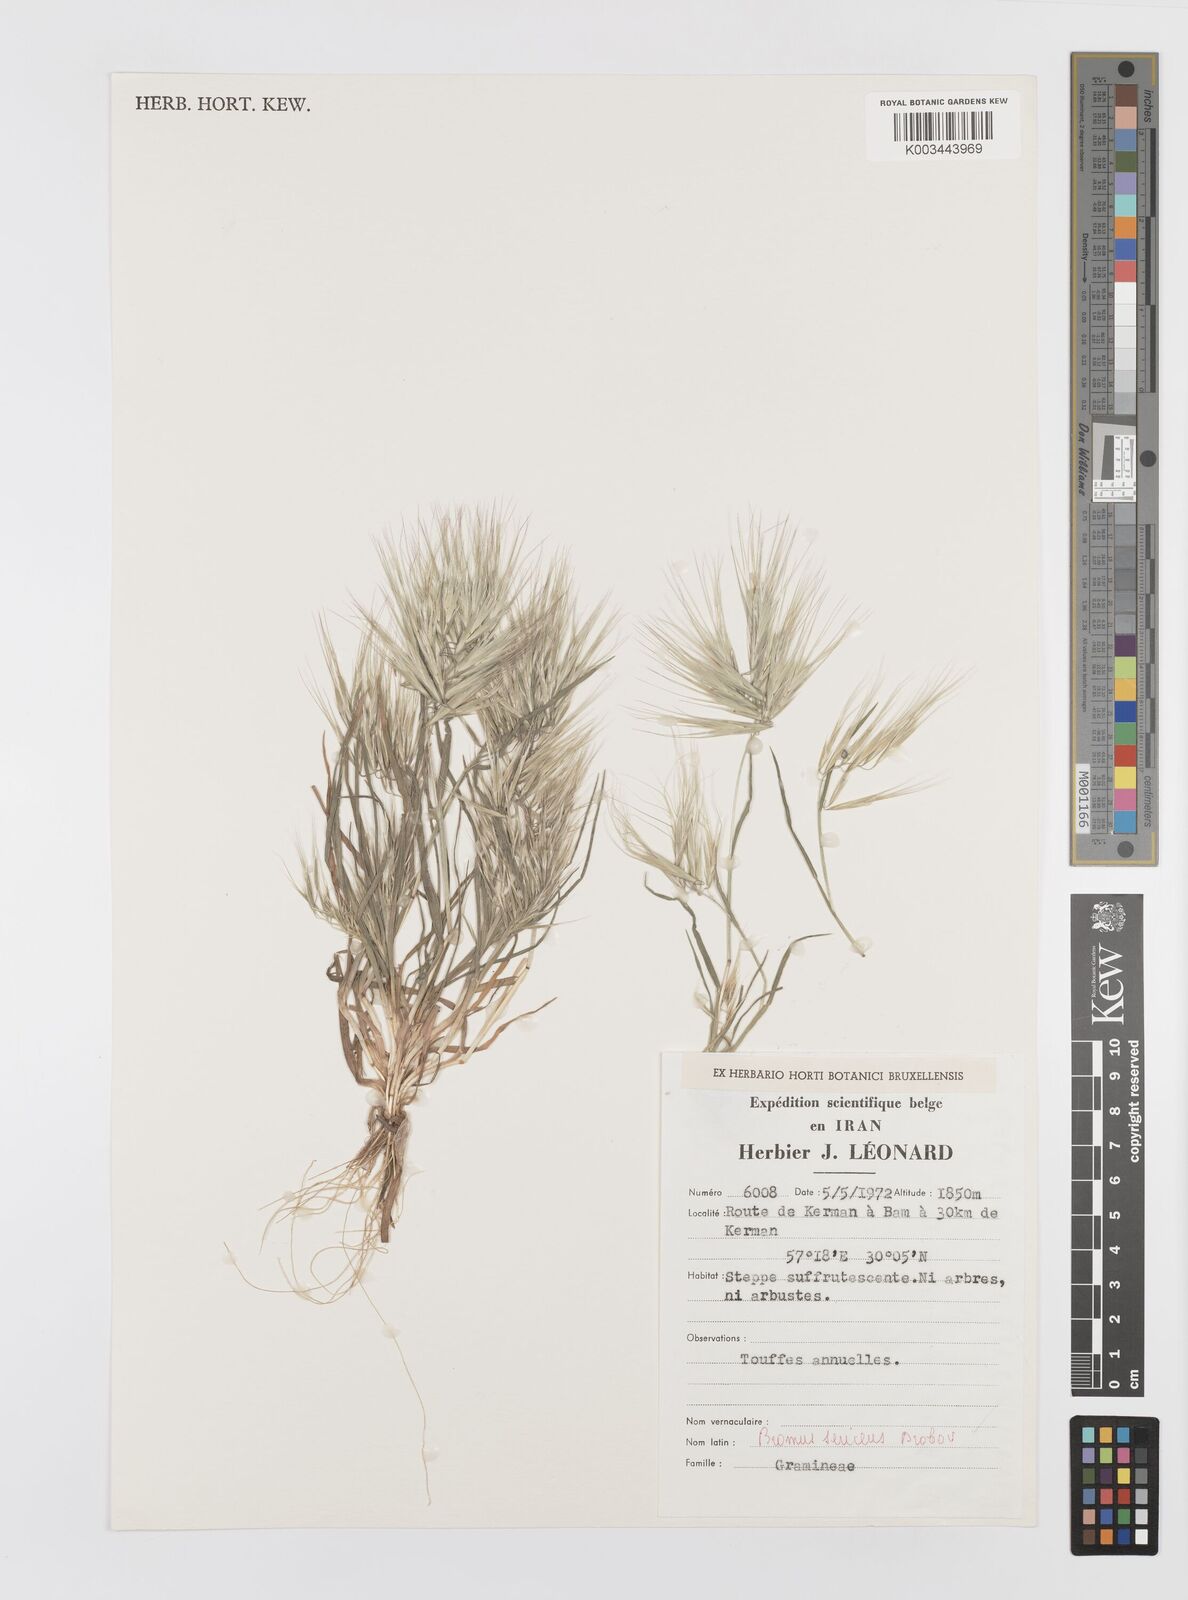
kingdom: Plantae
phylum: Tracheophyta
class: Liliopsida
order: Poales
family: Poaceae
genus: Bromus
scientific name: Bromus moeszii
